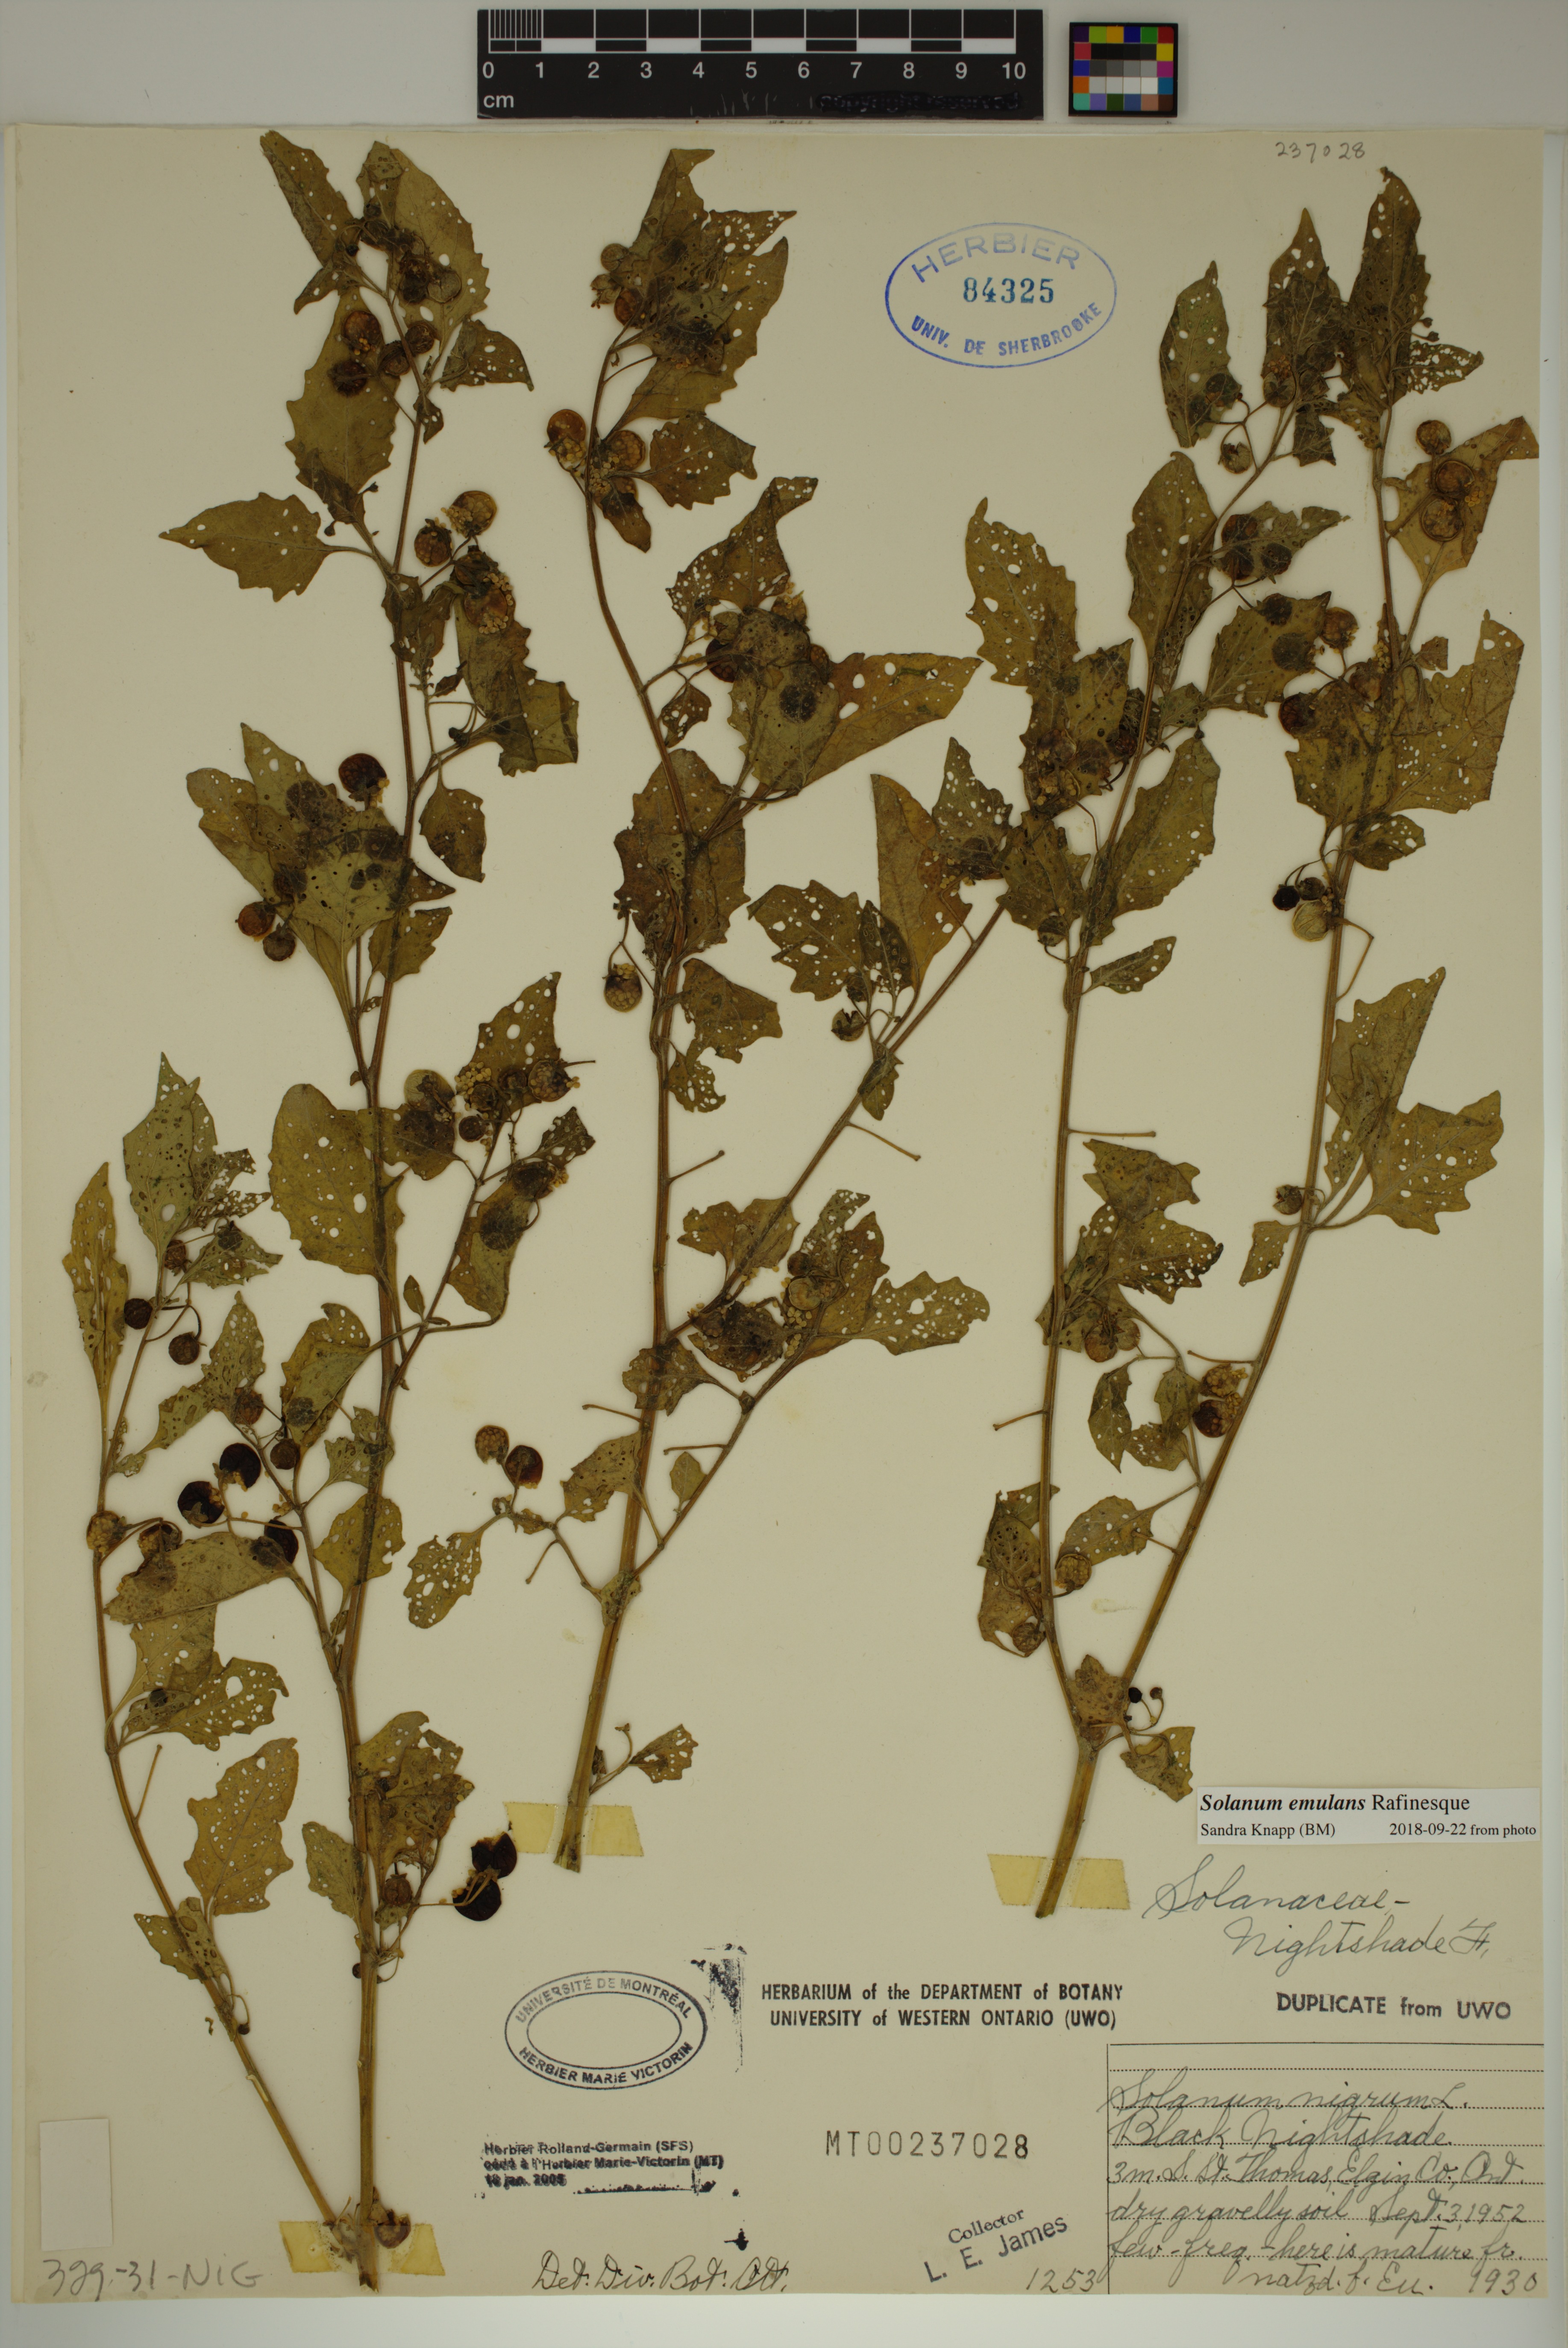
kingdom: Plantae
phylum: Tracheophyta
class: Magnoliopsida
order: Solanales
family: Solanaceae
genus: Solanum
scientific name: Solanum emulans
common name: Eastern black nightshade
